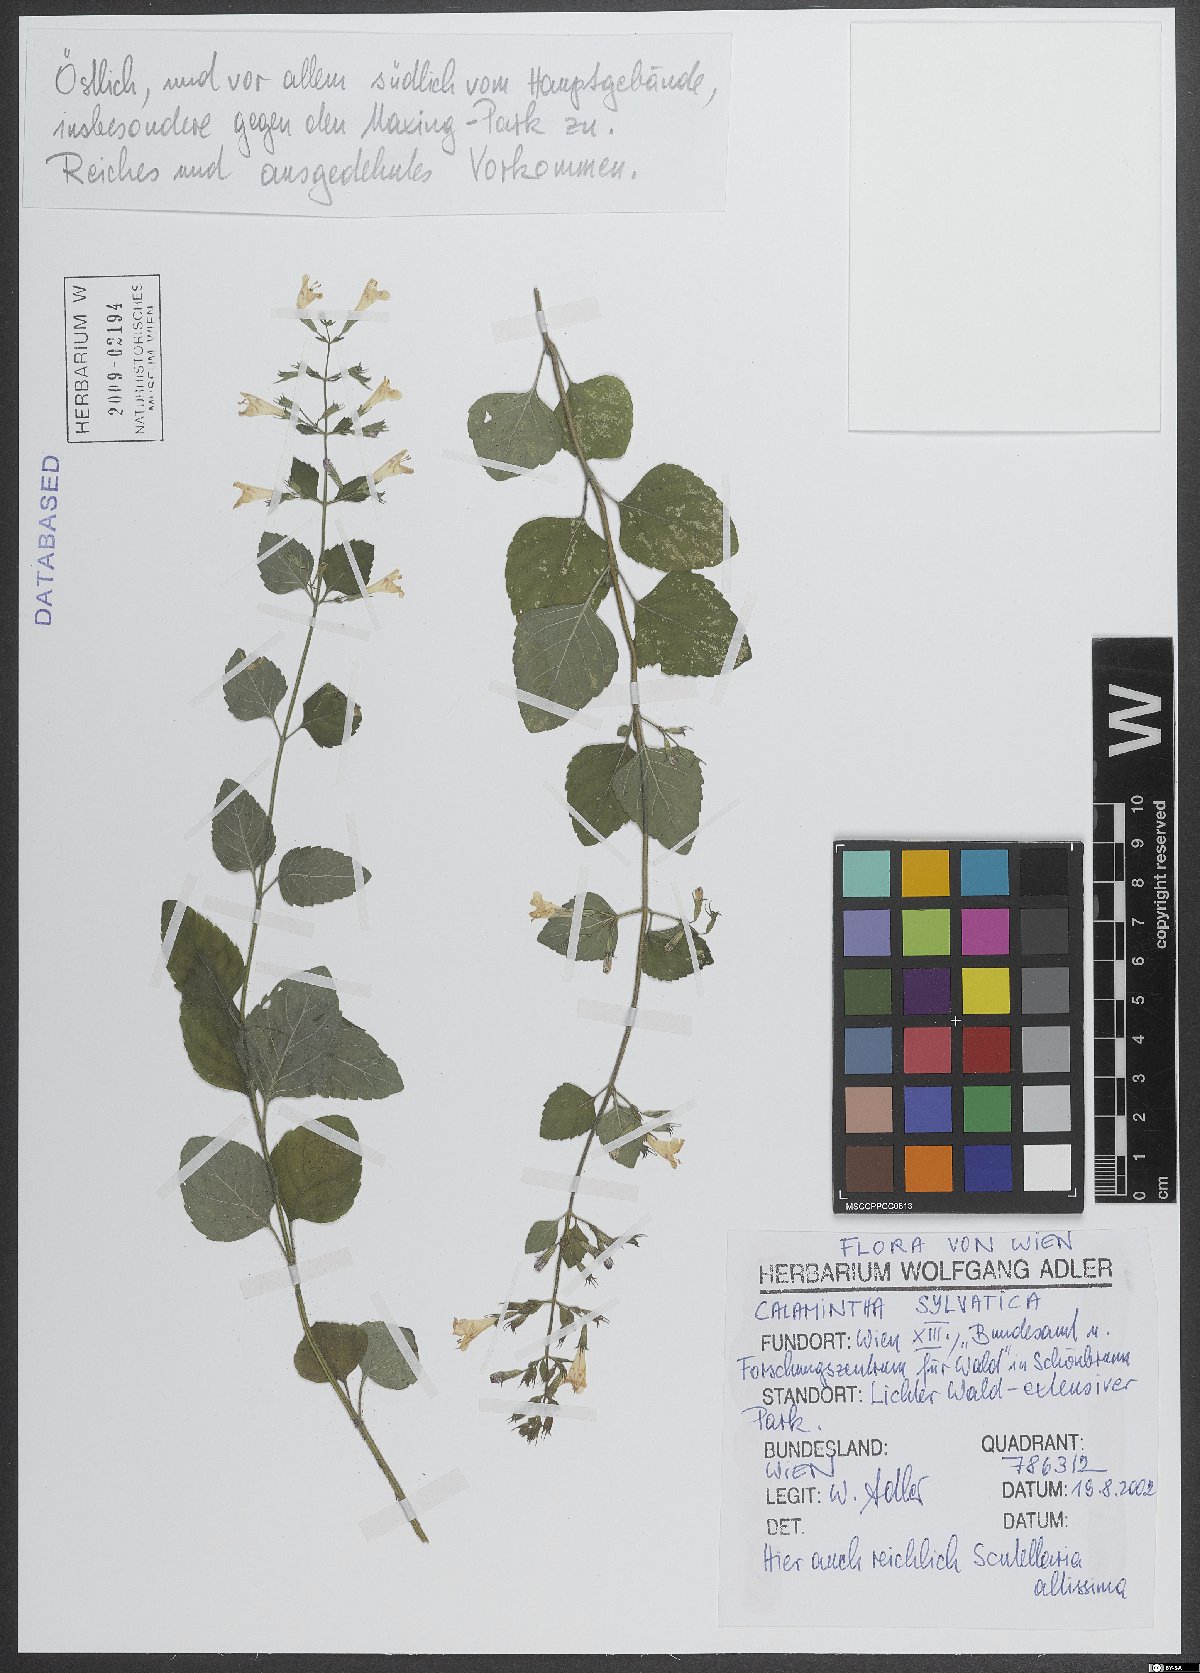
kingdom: Plantae
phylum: Tracheophyta
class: Magnoliopsida
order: Lamiales
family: Lamiaceae
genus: Clinopodium
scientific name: Clinopodium menthifolium
